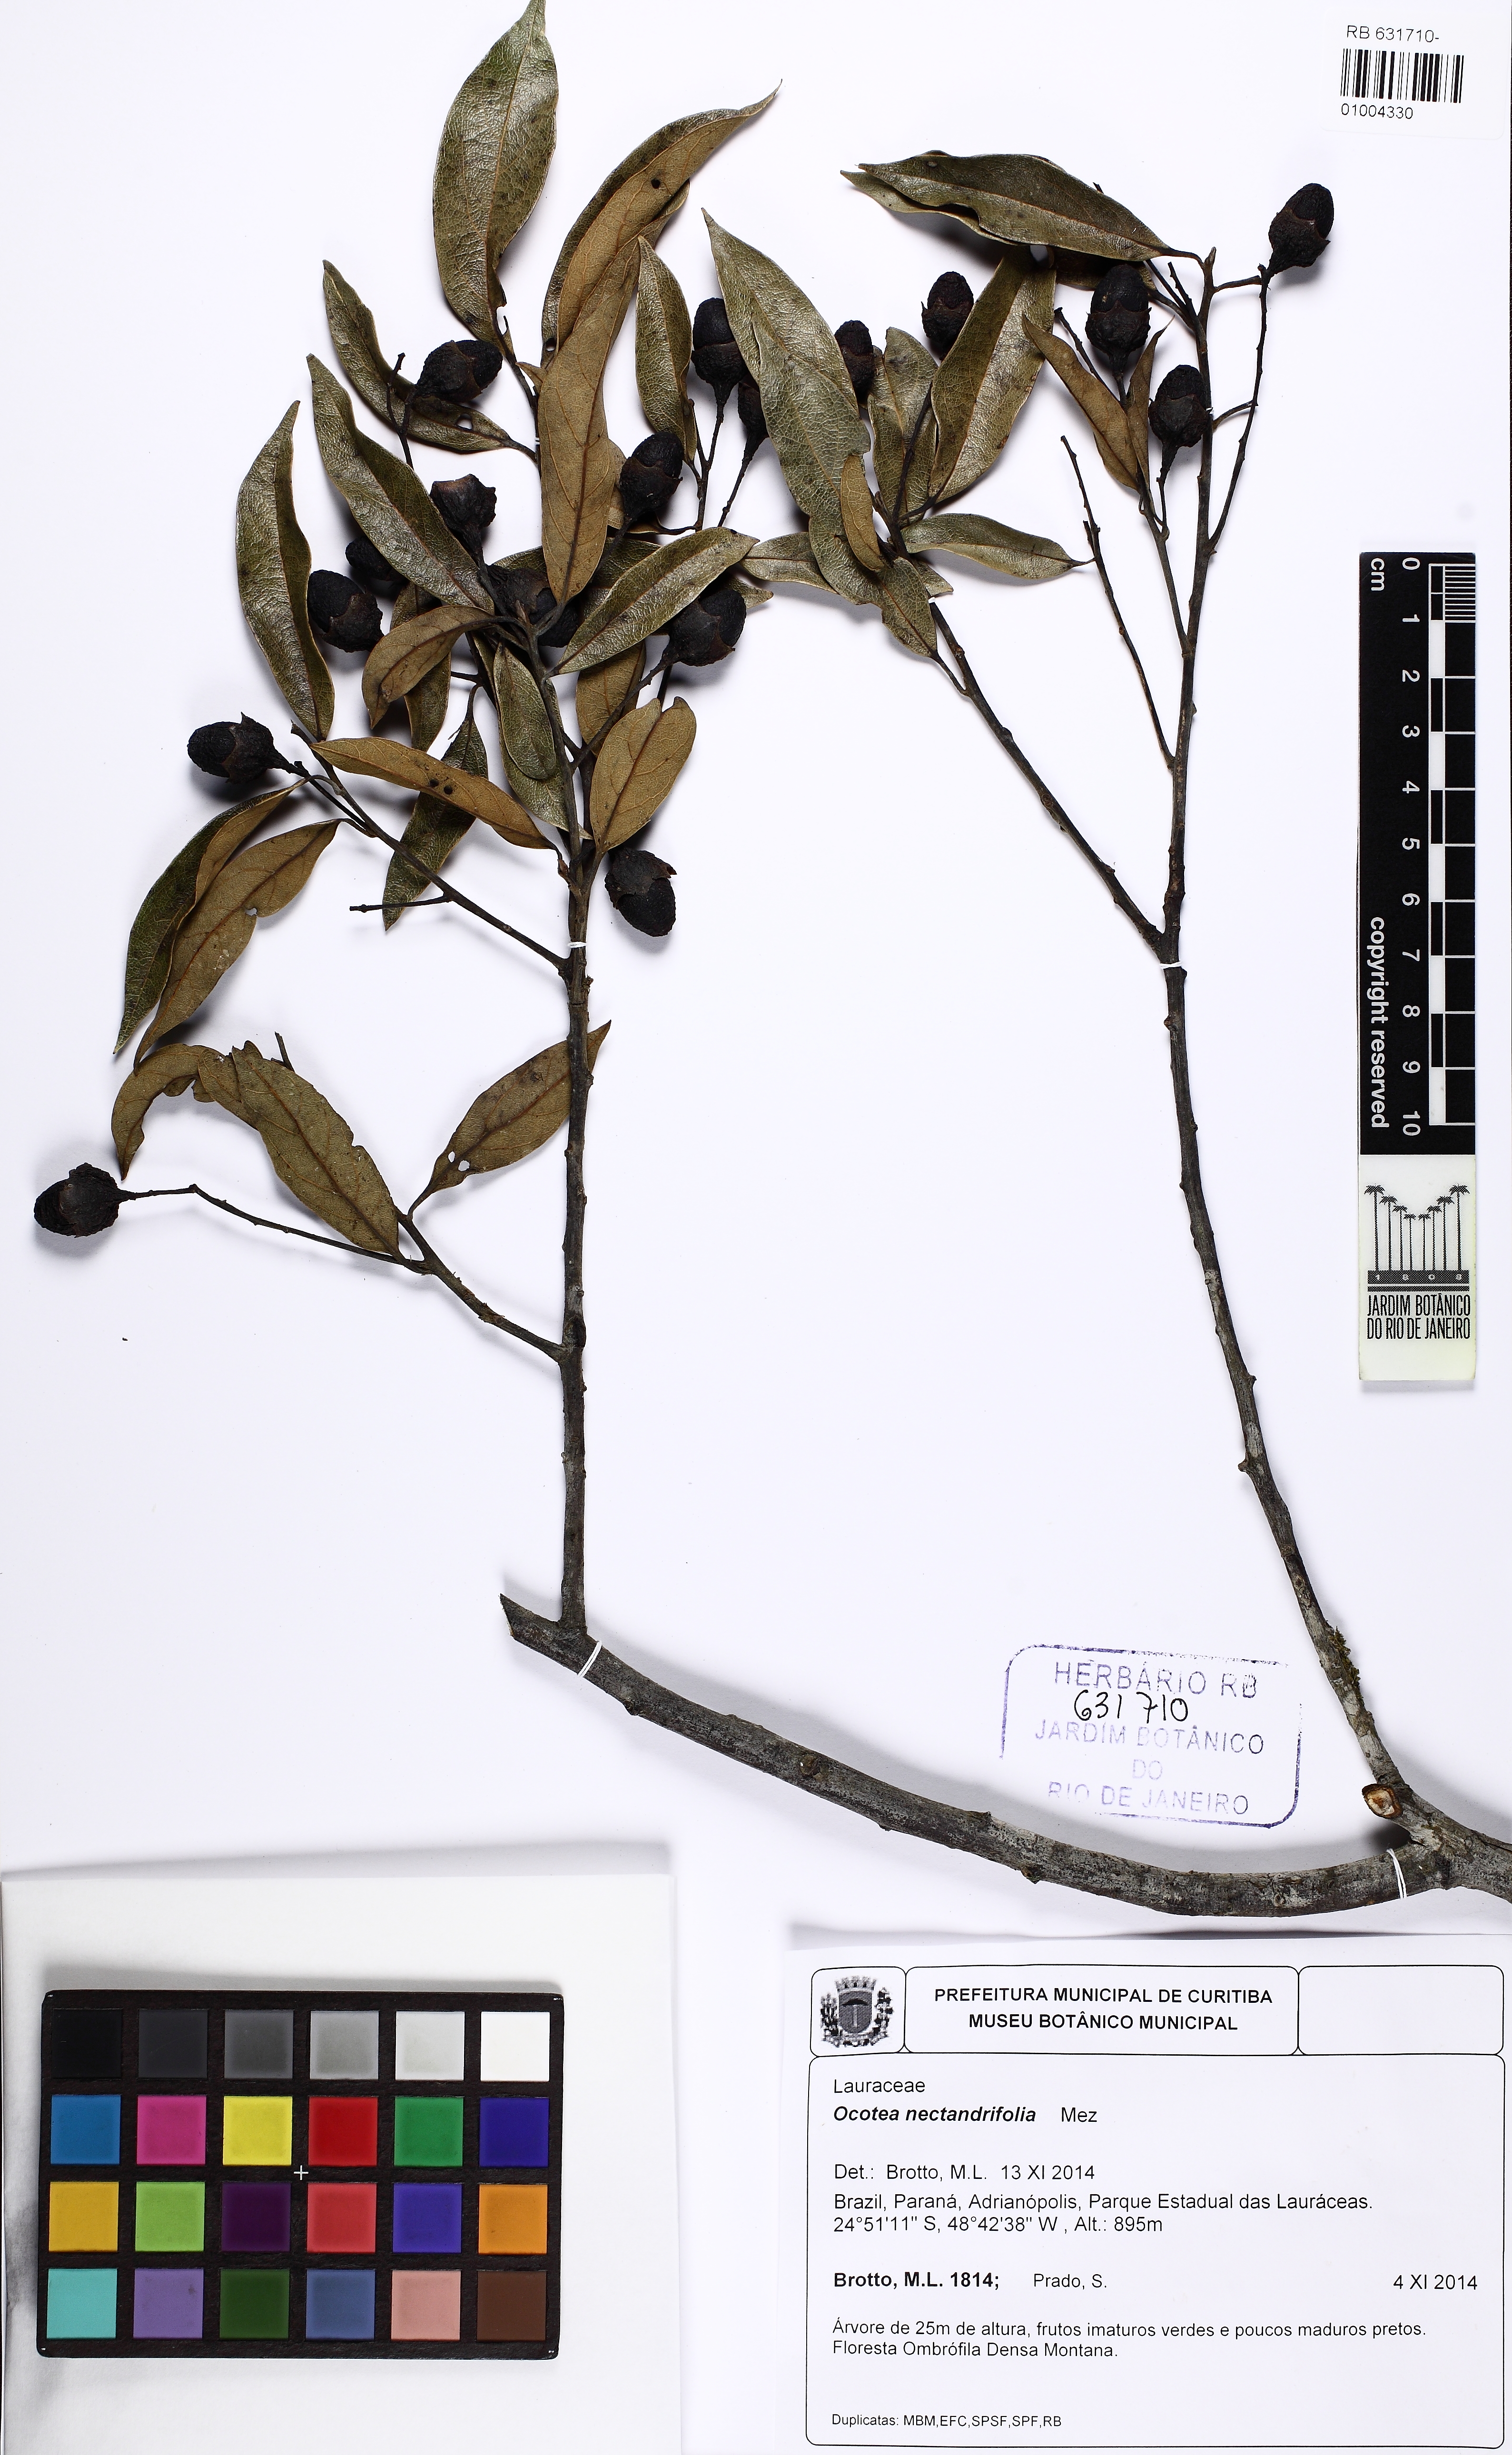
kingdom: Plantae
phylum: Tracheophyta
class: Magnoliopsida
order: Laurales
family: Lauraceae
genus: Ocotea
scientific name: Ocotea nectandrifolia
